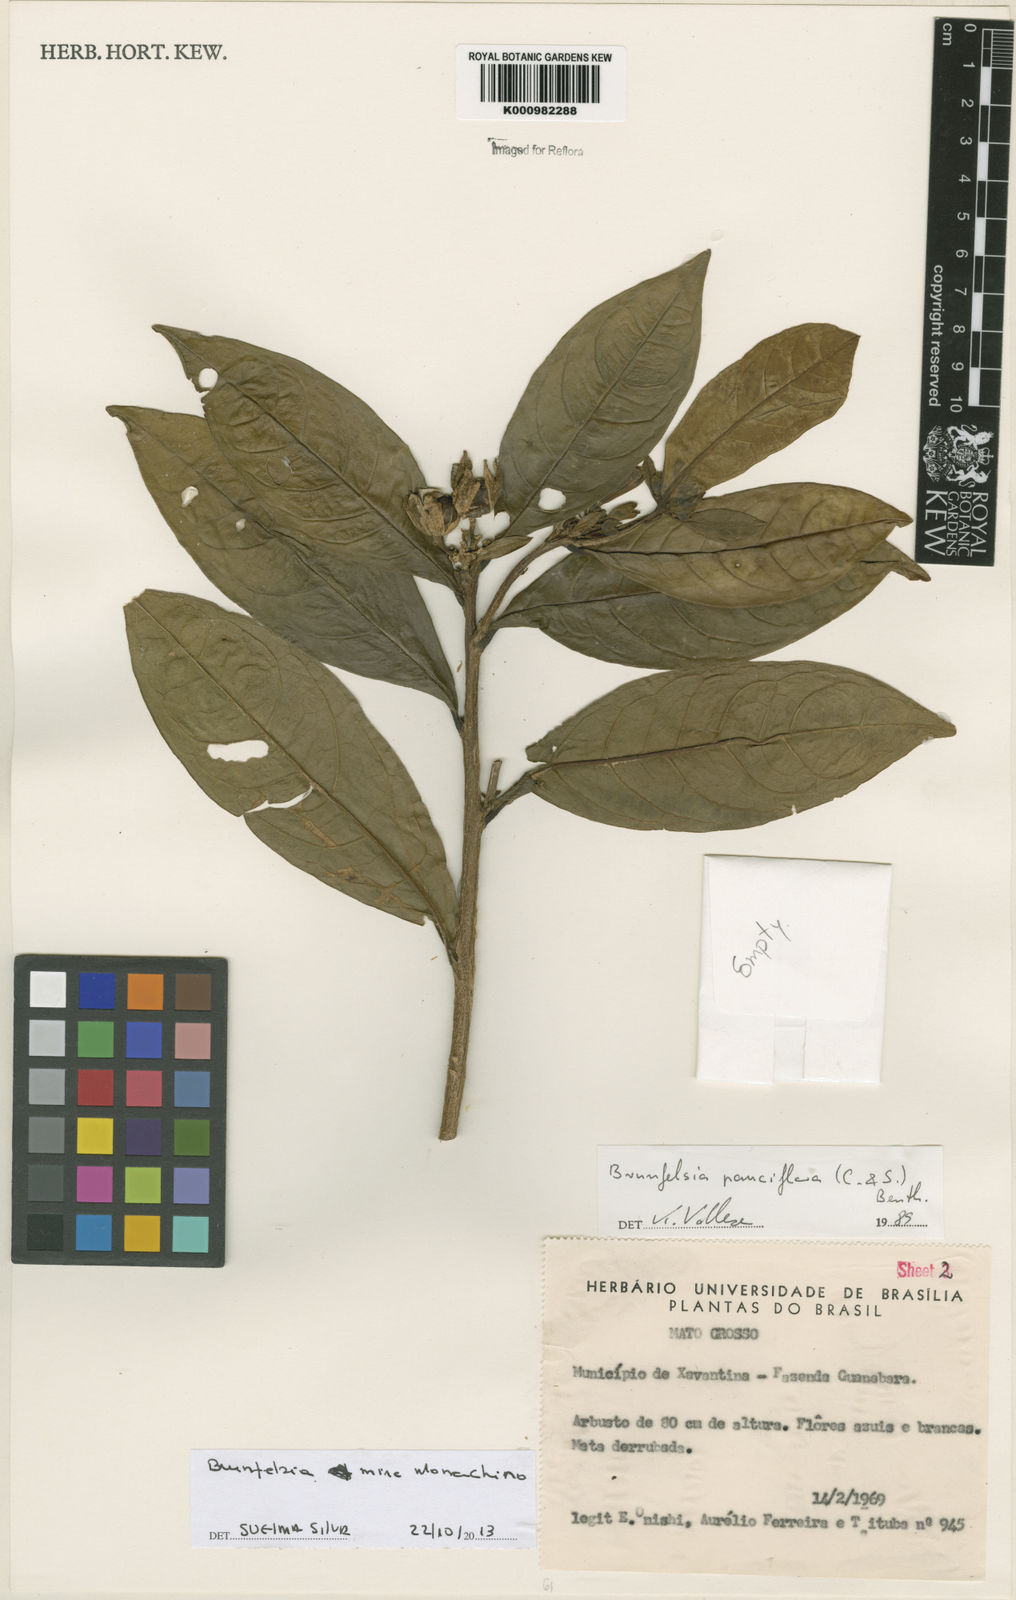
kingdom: Plantae
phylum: Tracheophyta
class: Magnoliopsida
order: Solanales
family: Solanaceae
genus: Brunfelsia
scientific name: Brunfelsia mire
